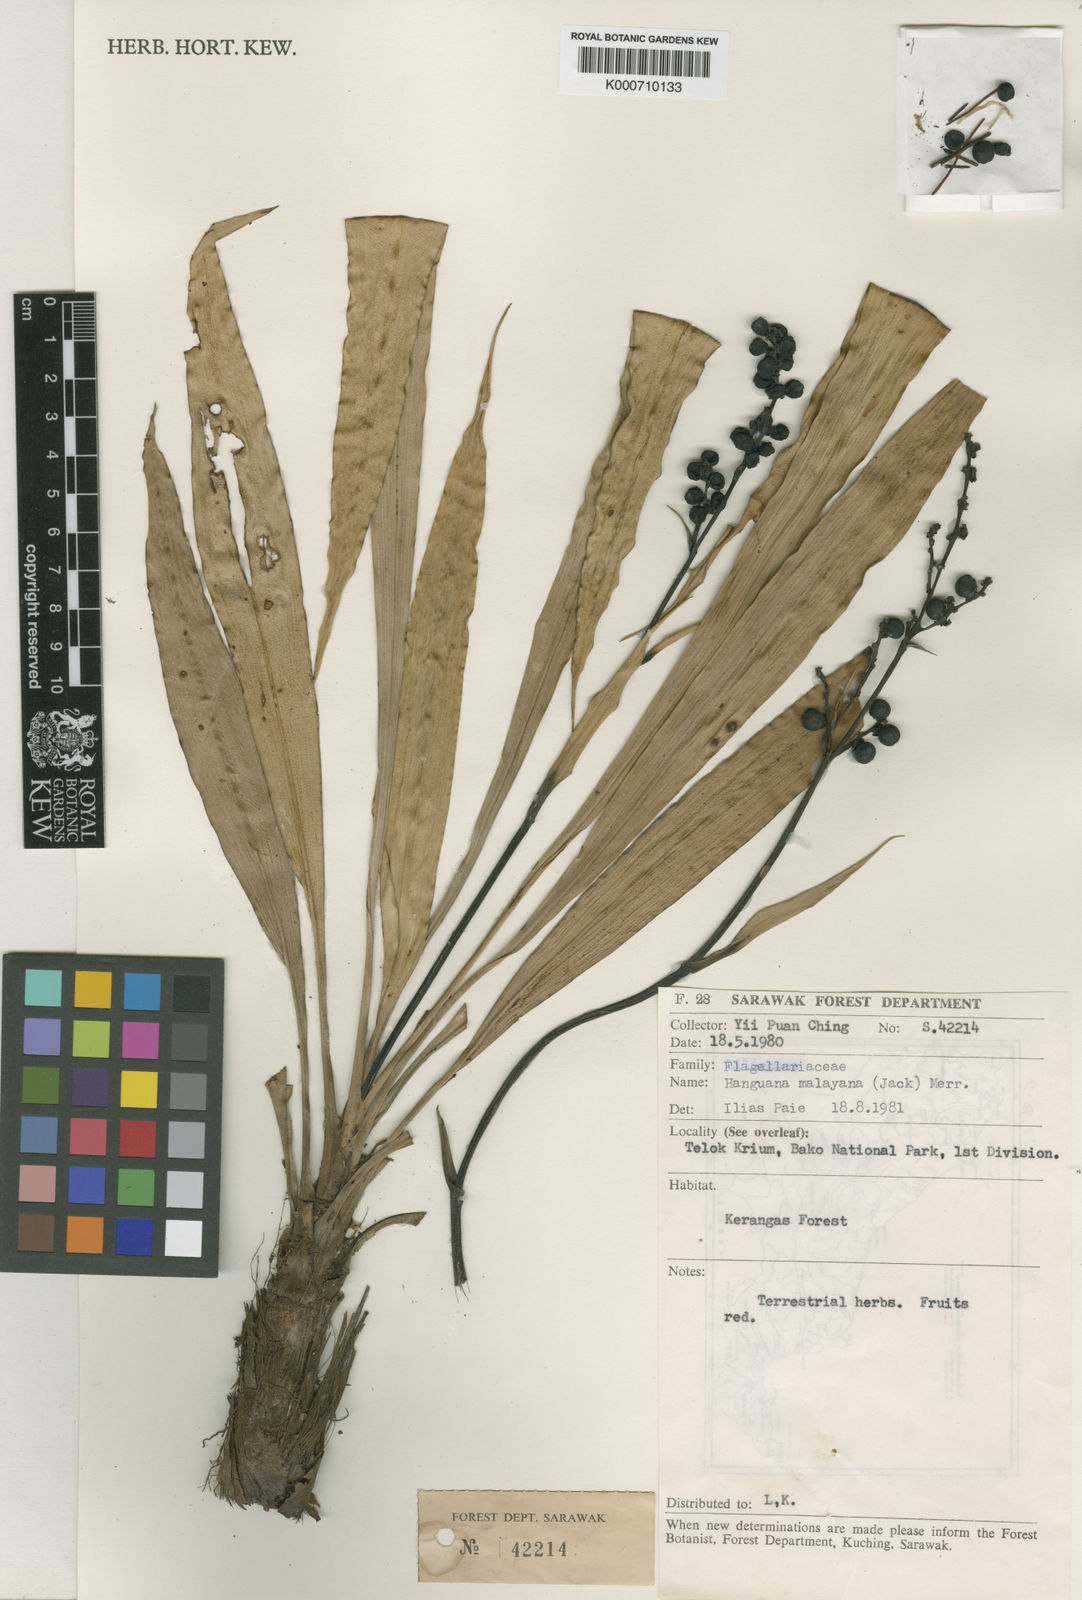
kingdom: Plantae
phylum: Tracheophyta
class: Liliopsida
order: Commelinales
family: Hanguanaceae
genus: Hanguana
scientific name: Hanguana malayana
